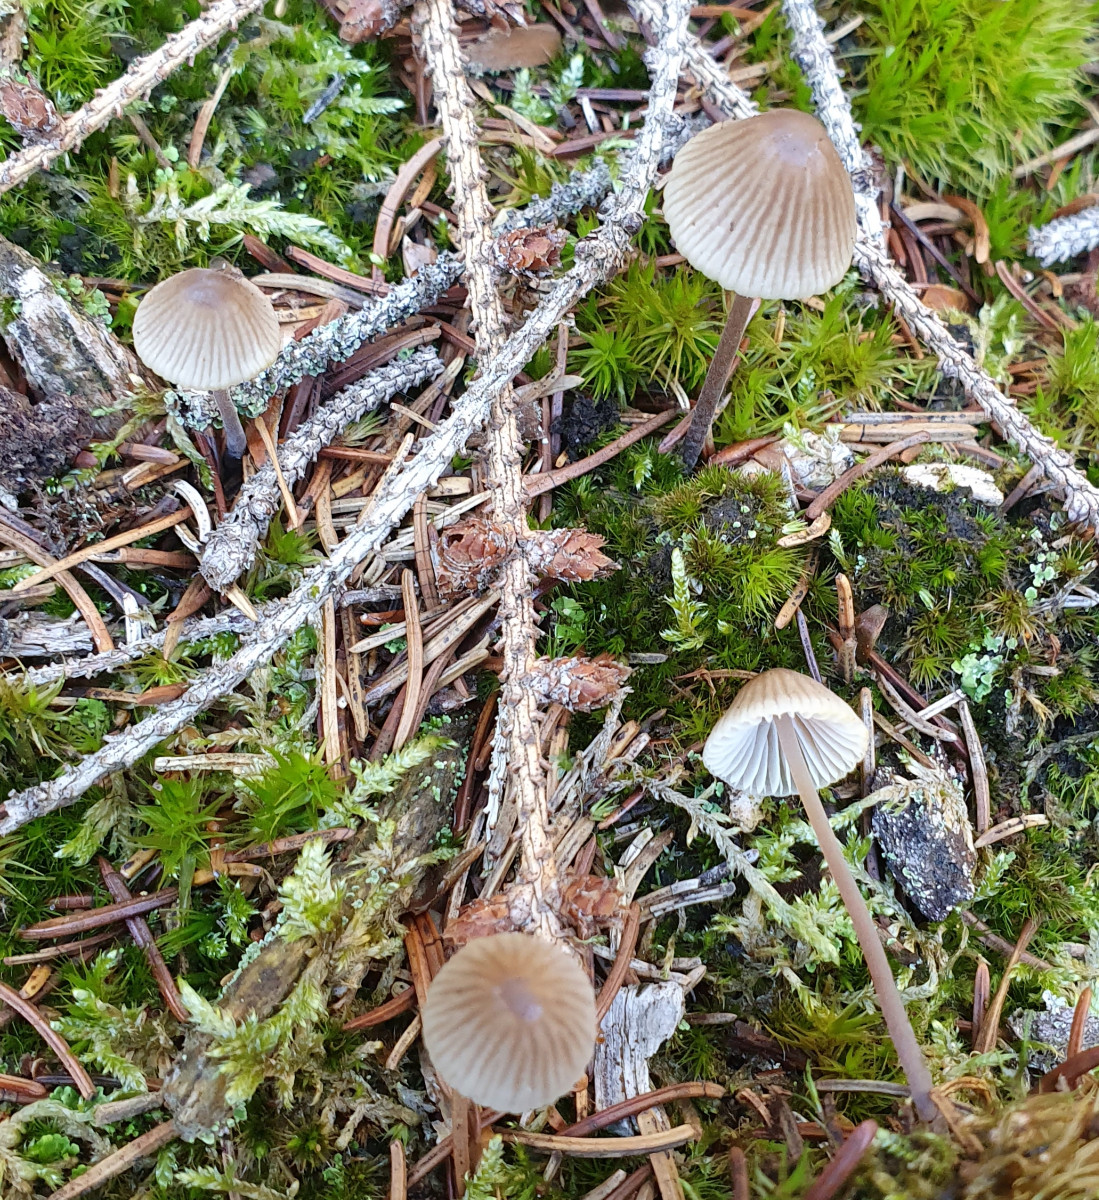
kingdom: Fungi
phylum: Basidiomycota
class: Agaricomycetes
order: Agaricales
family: Mycenaceae
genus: Mycena
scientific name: Mycena leptocephala
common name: klor-huesvamp
